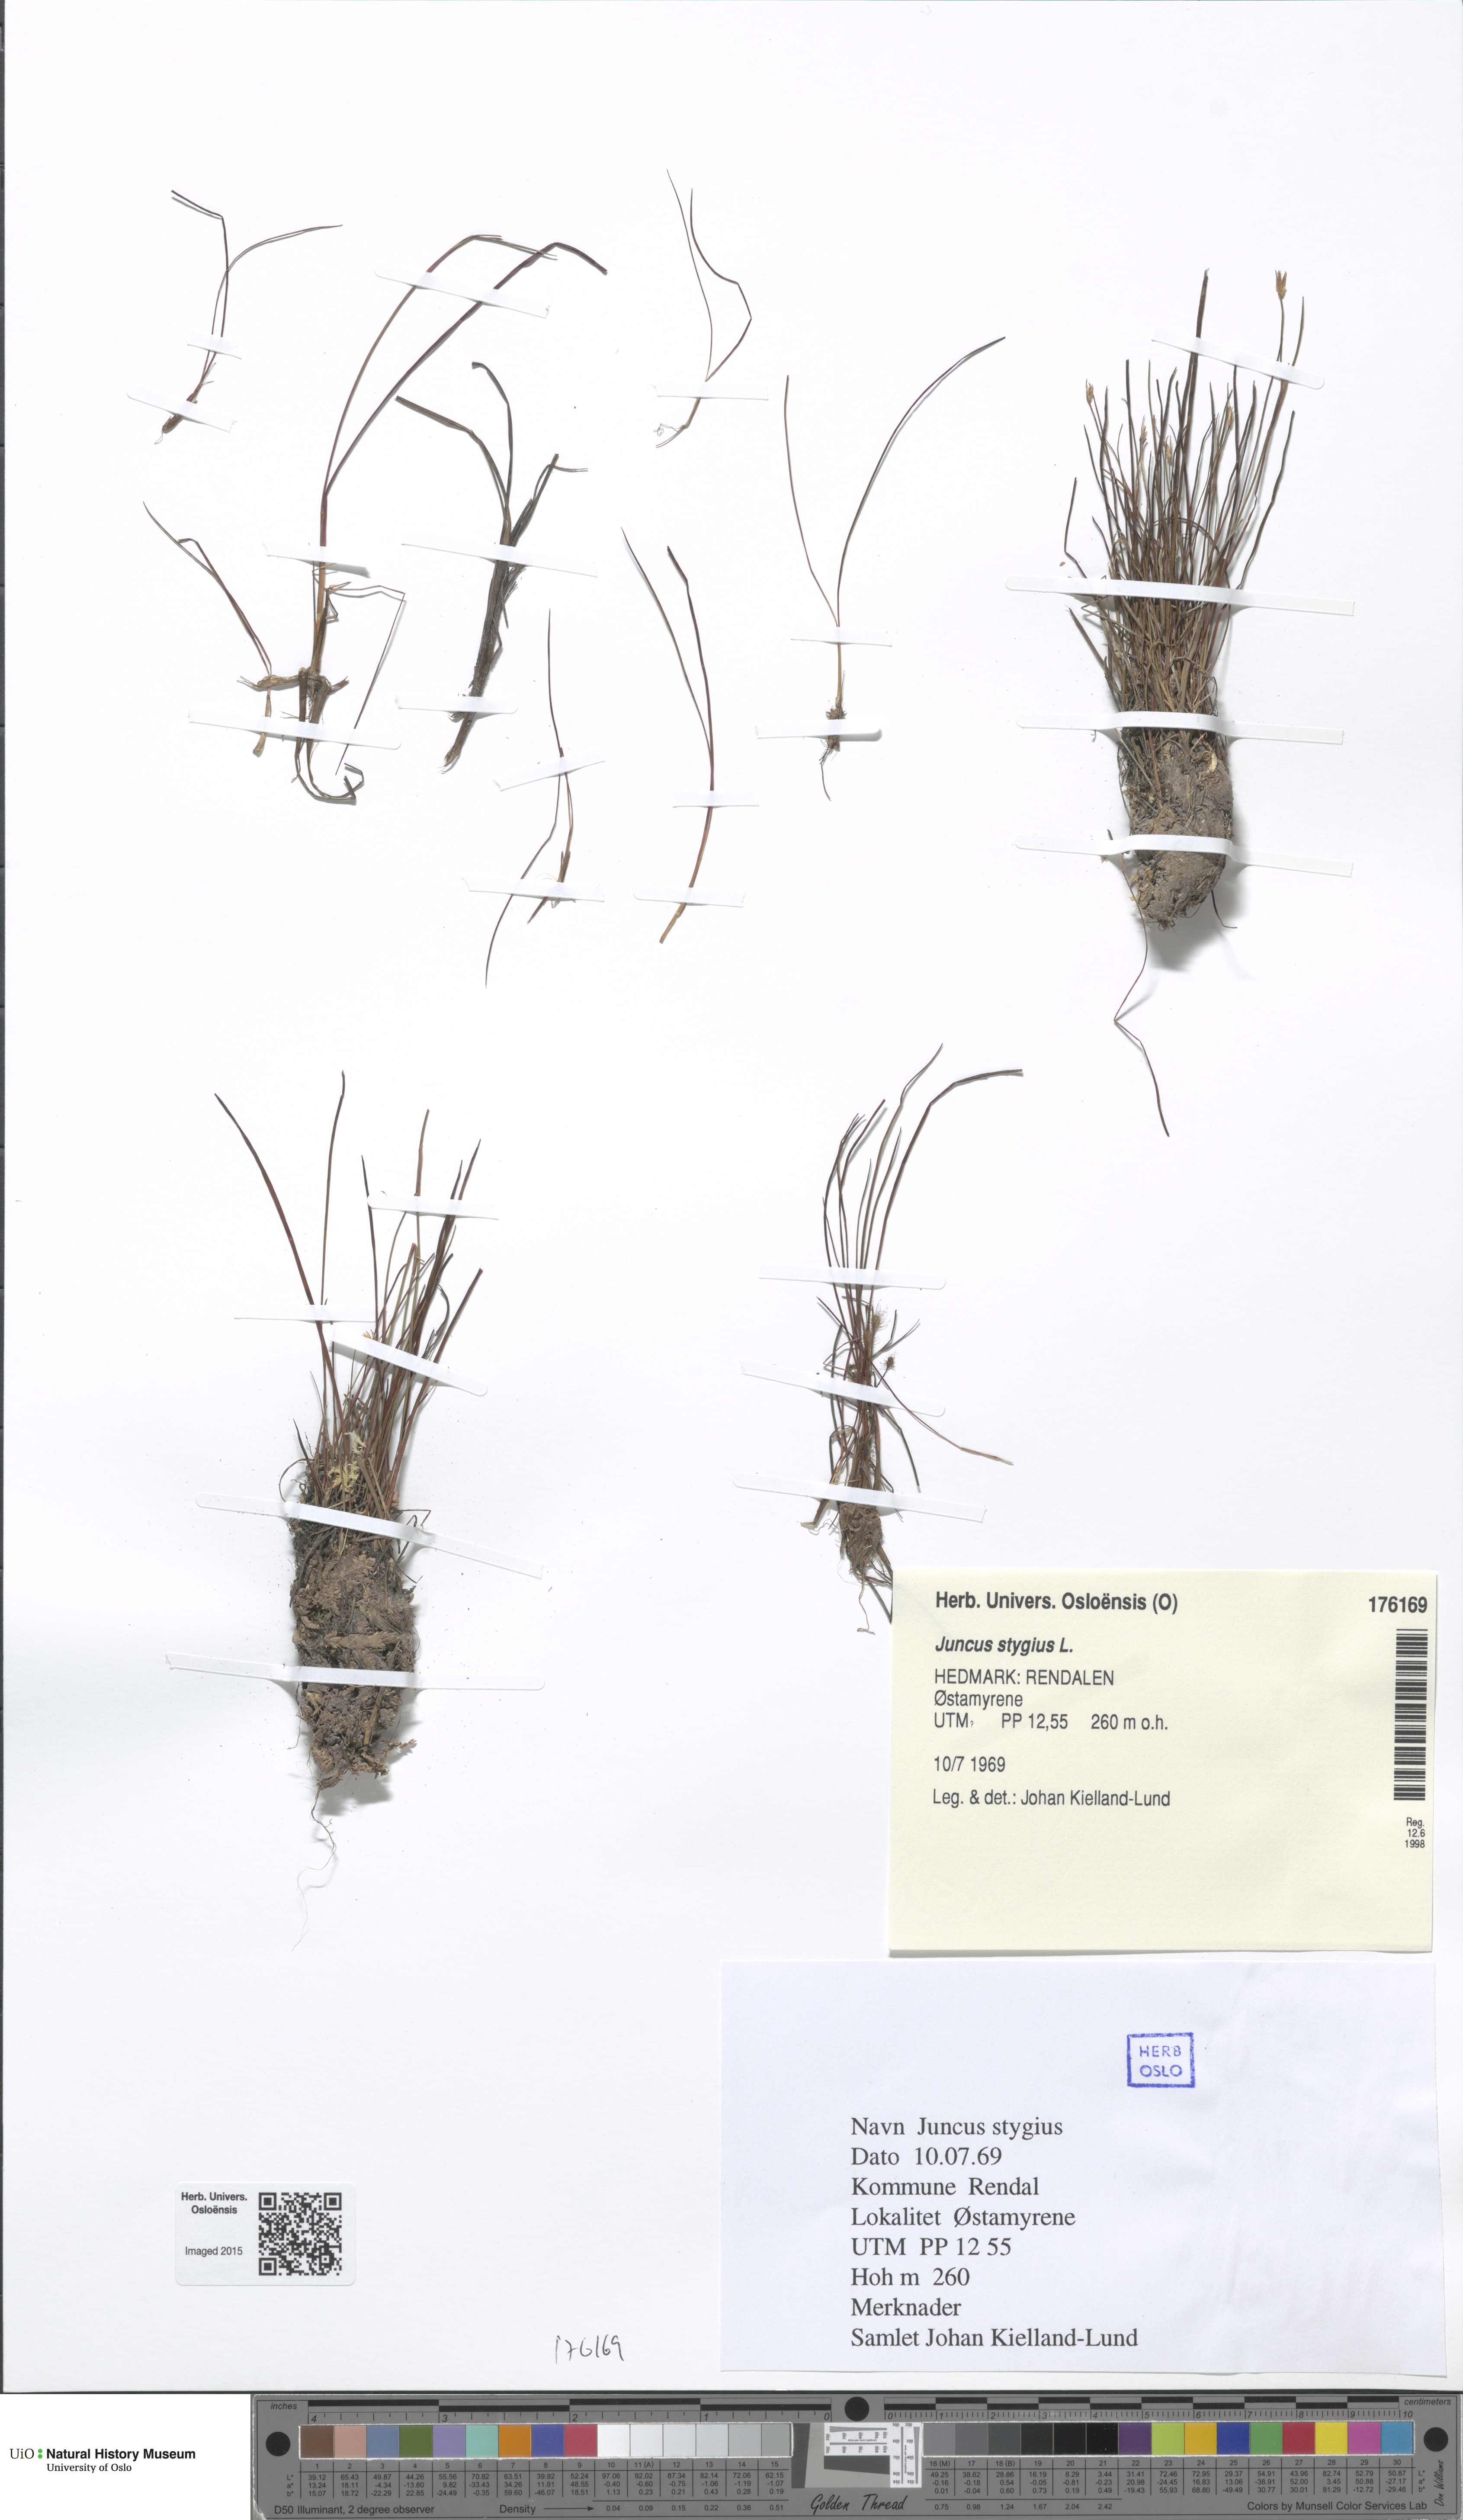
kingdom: Plantae
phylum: Tracheophyta
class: Liliopsida
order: Poales
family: Juncaceae
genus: Juncus
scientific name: Juncus stygius
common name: Bog rush
